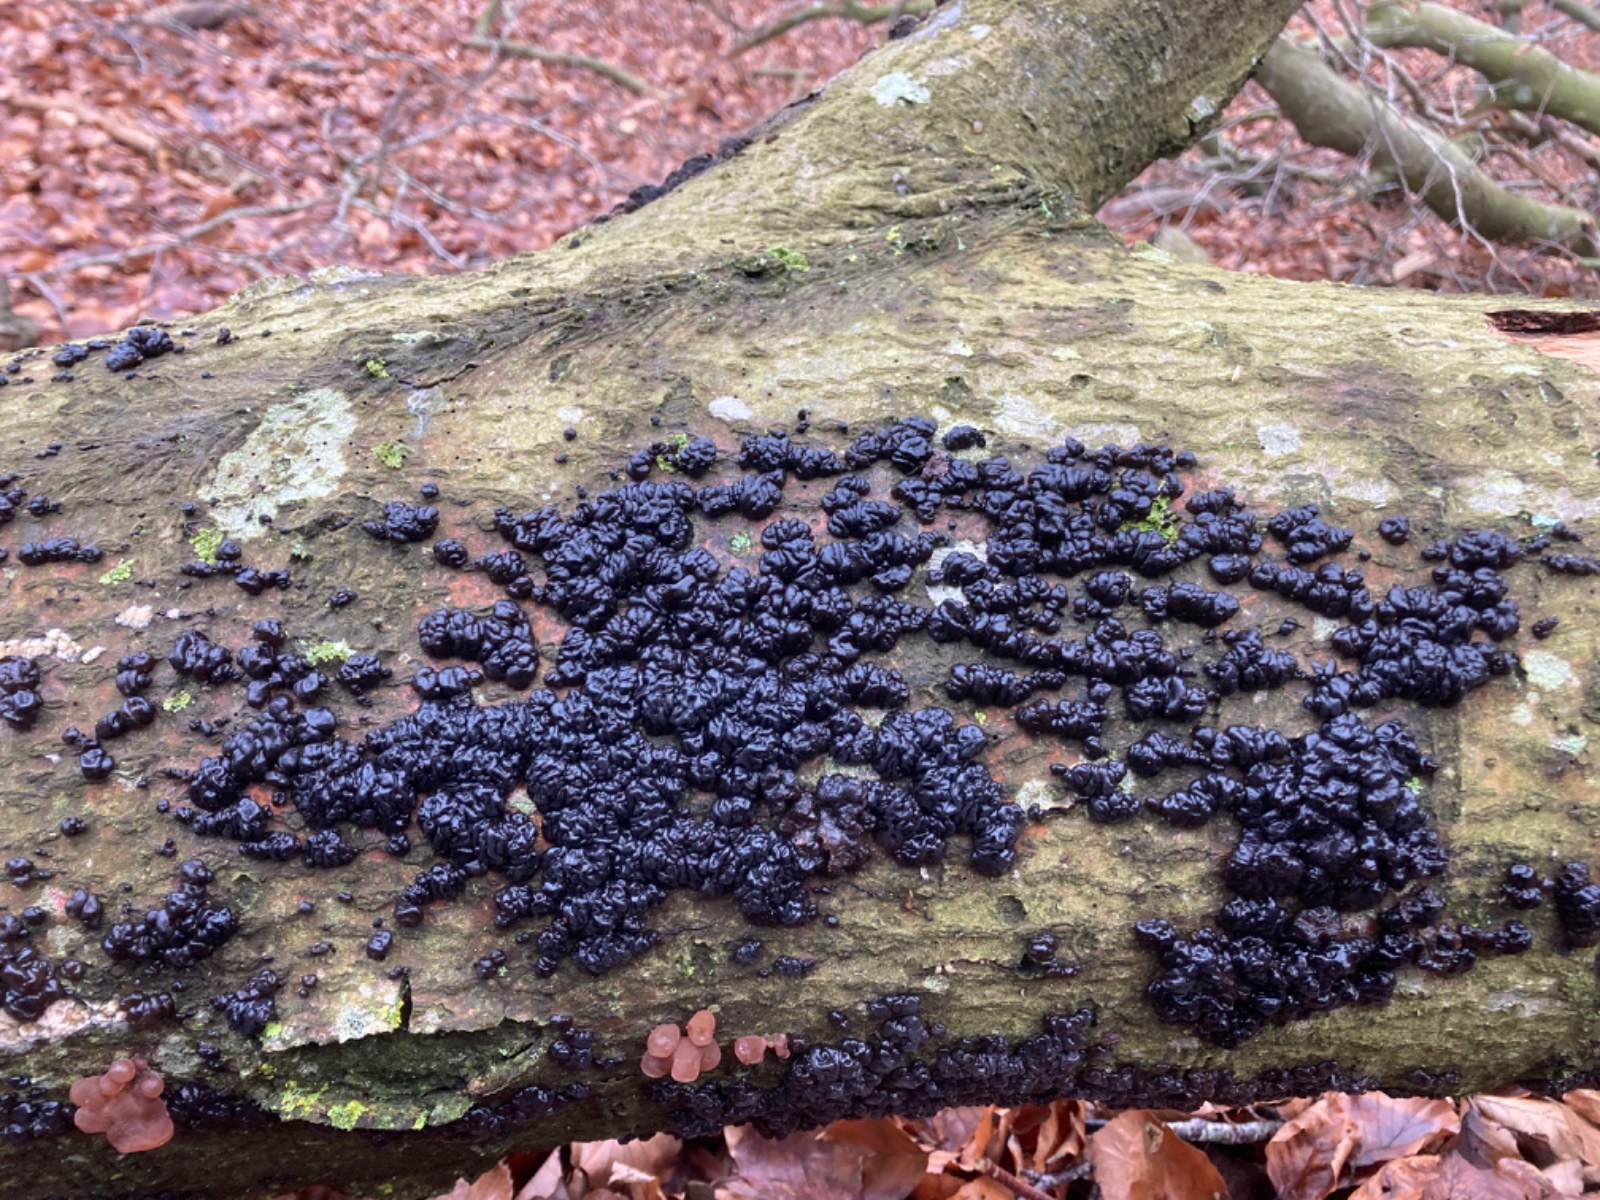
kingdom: Fungi
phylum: Basidiomycota
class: Agaricomycetes
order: Auriculariales
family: Auriculariaceae
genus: Exidia
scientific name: Exidia nigricans
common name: almindelig bævretop
